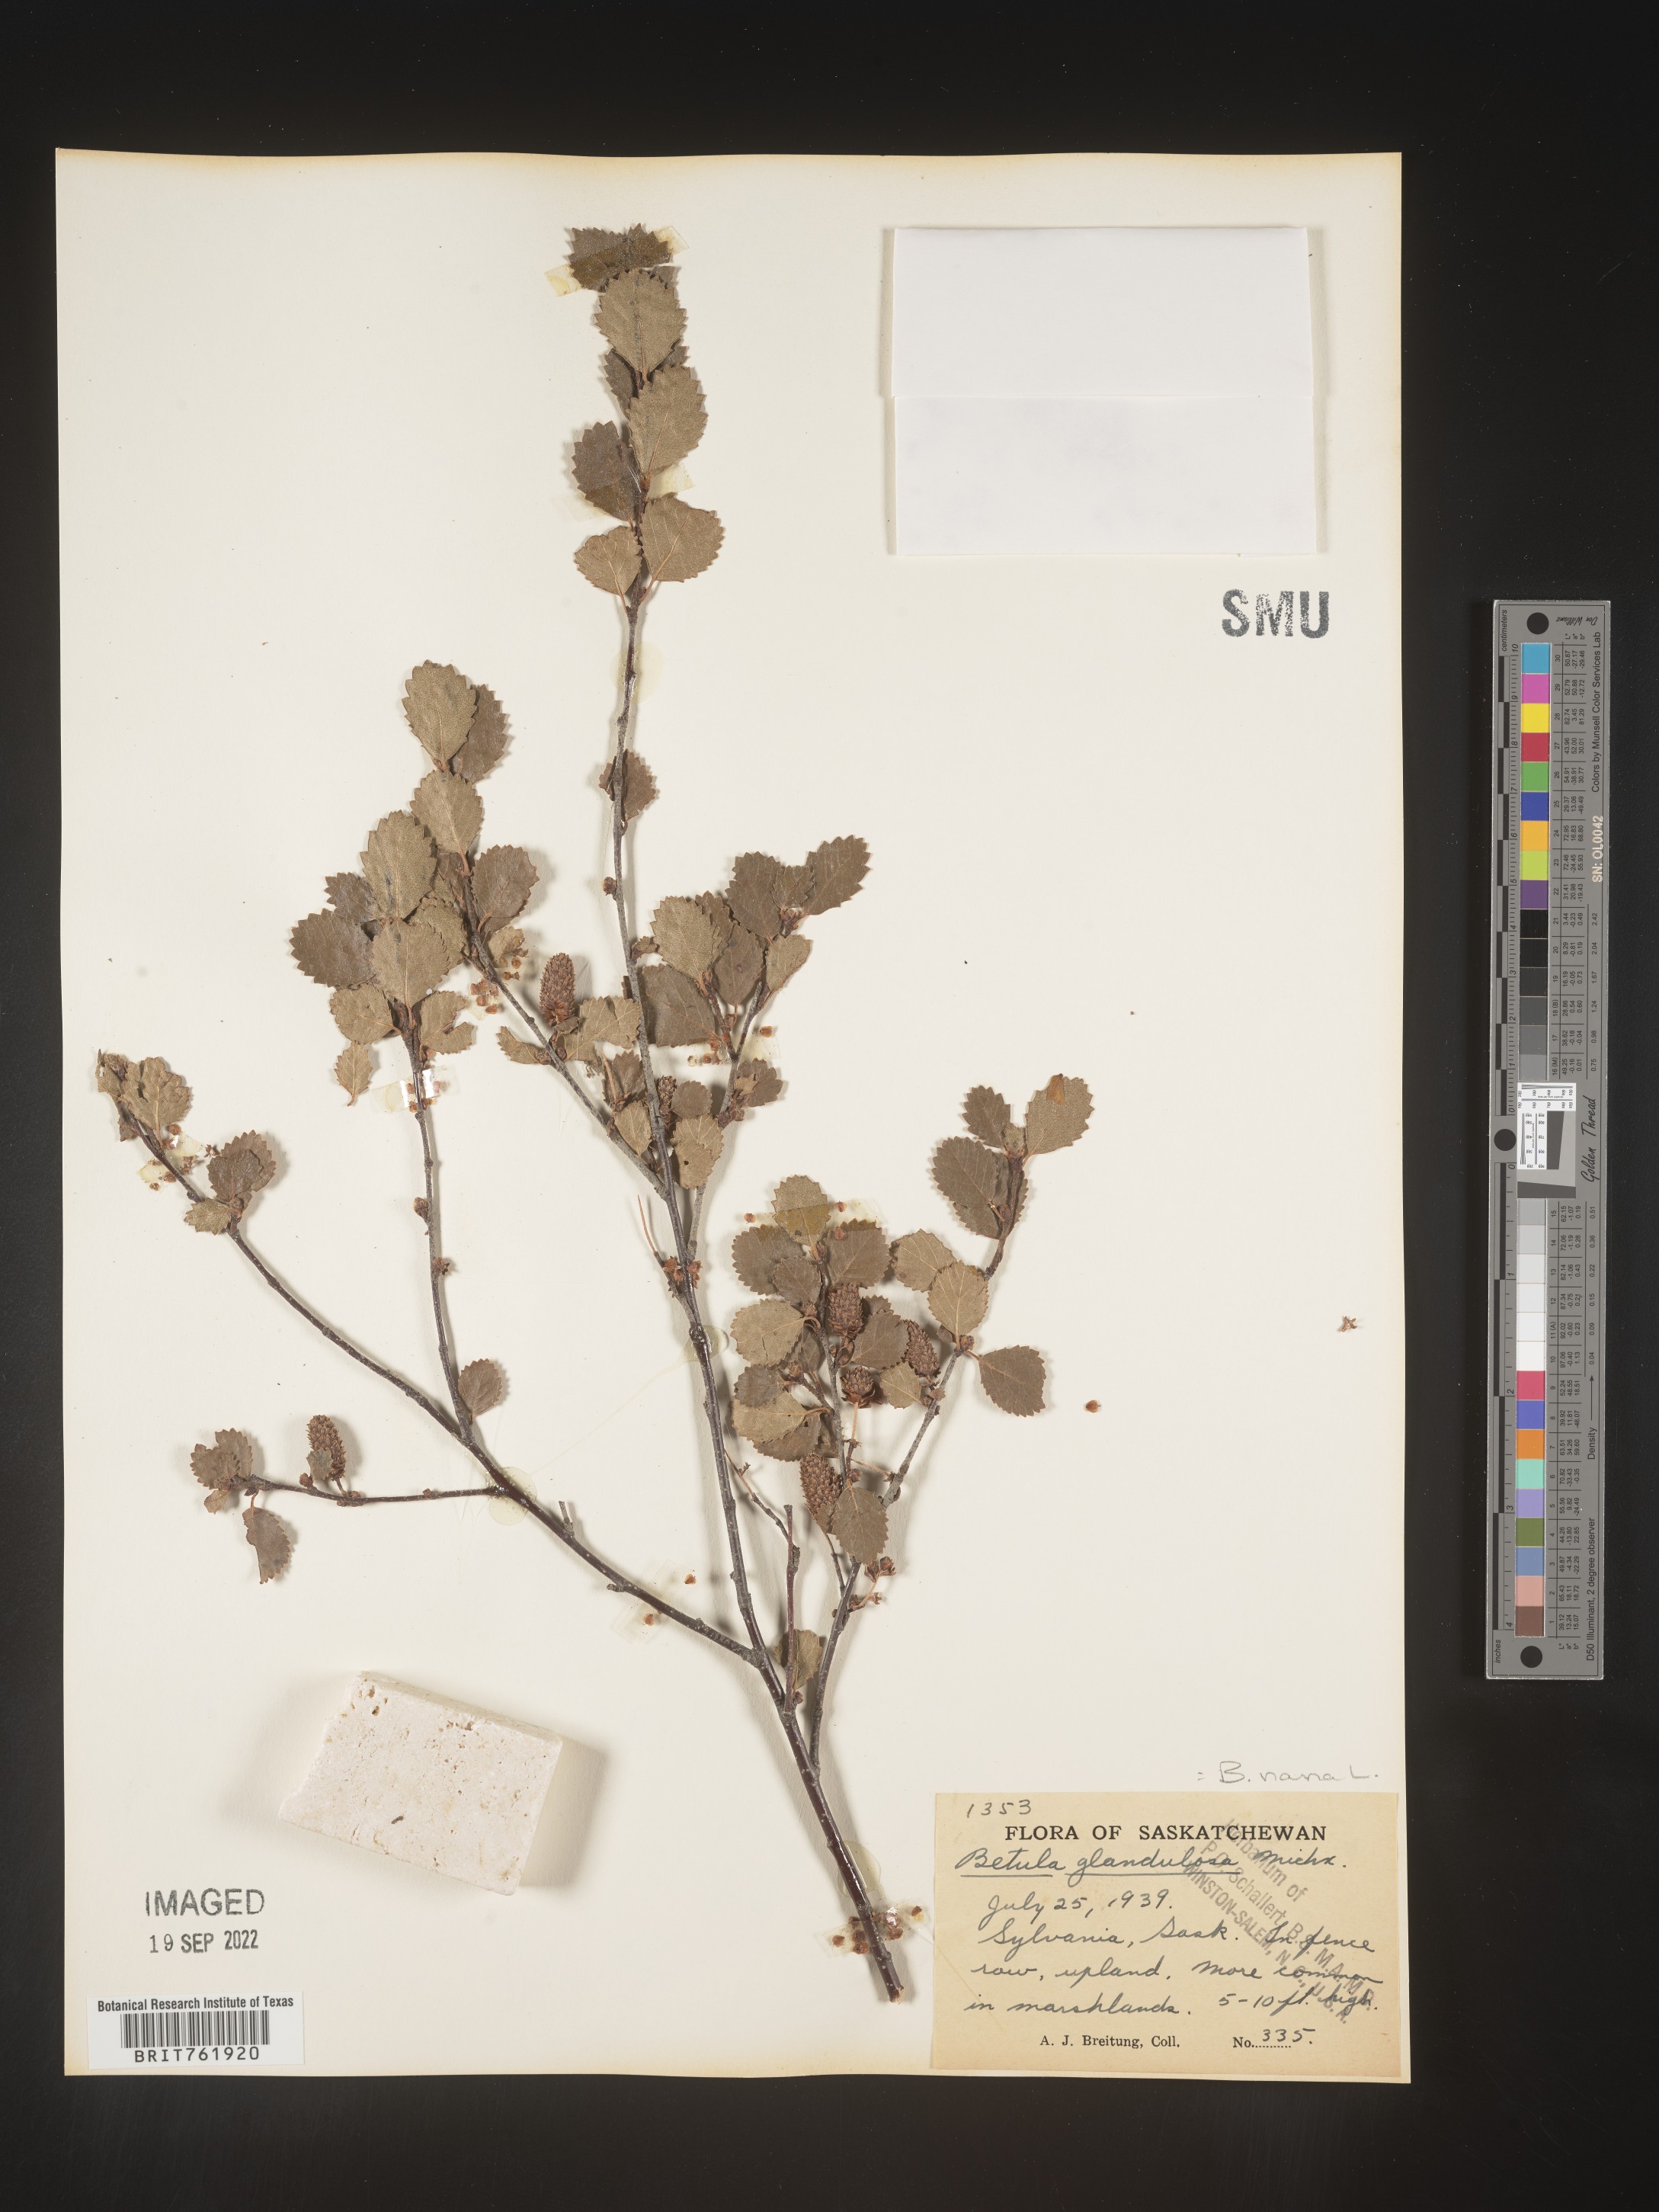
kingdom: Plantae
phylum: Tracheophyta
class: Magnoliopsida
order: Fagales
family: Betulaceae
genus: Betula
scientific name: Betula nana
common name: Arctic dwarf birch
